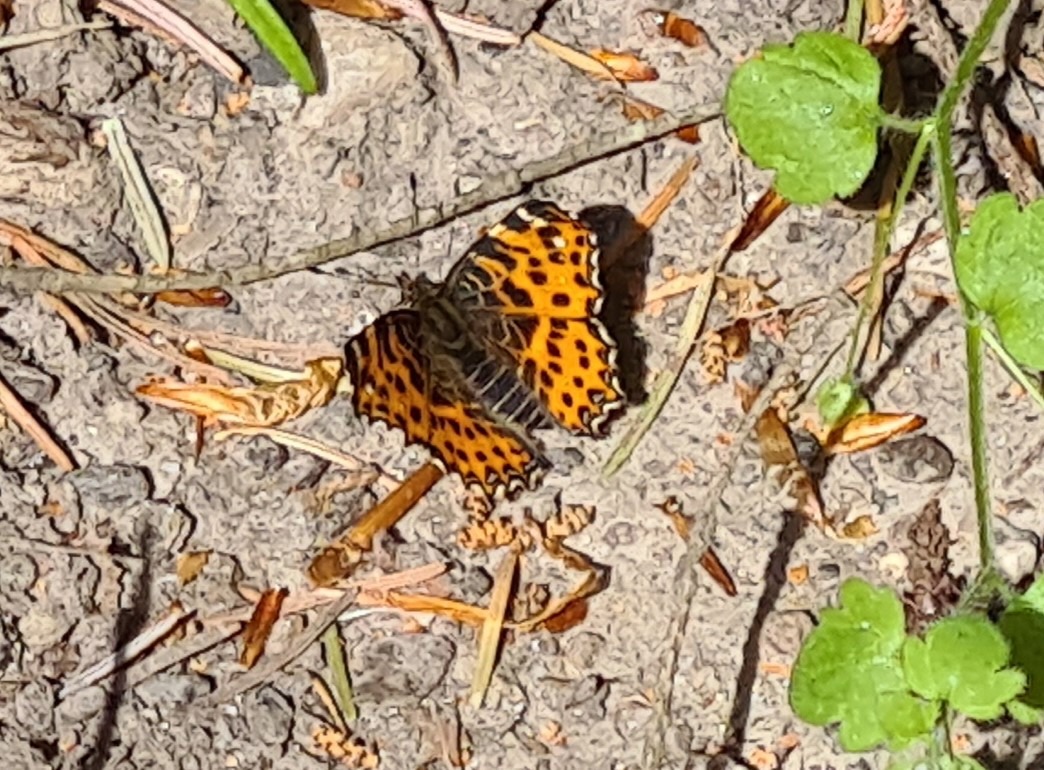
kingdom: Animalia
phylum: Arthropoda
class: Insecta
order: Lepidoptera
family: Nymphalidae
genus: Araschnia
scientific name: Araschnia levana
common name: Nældesommerfugl
